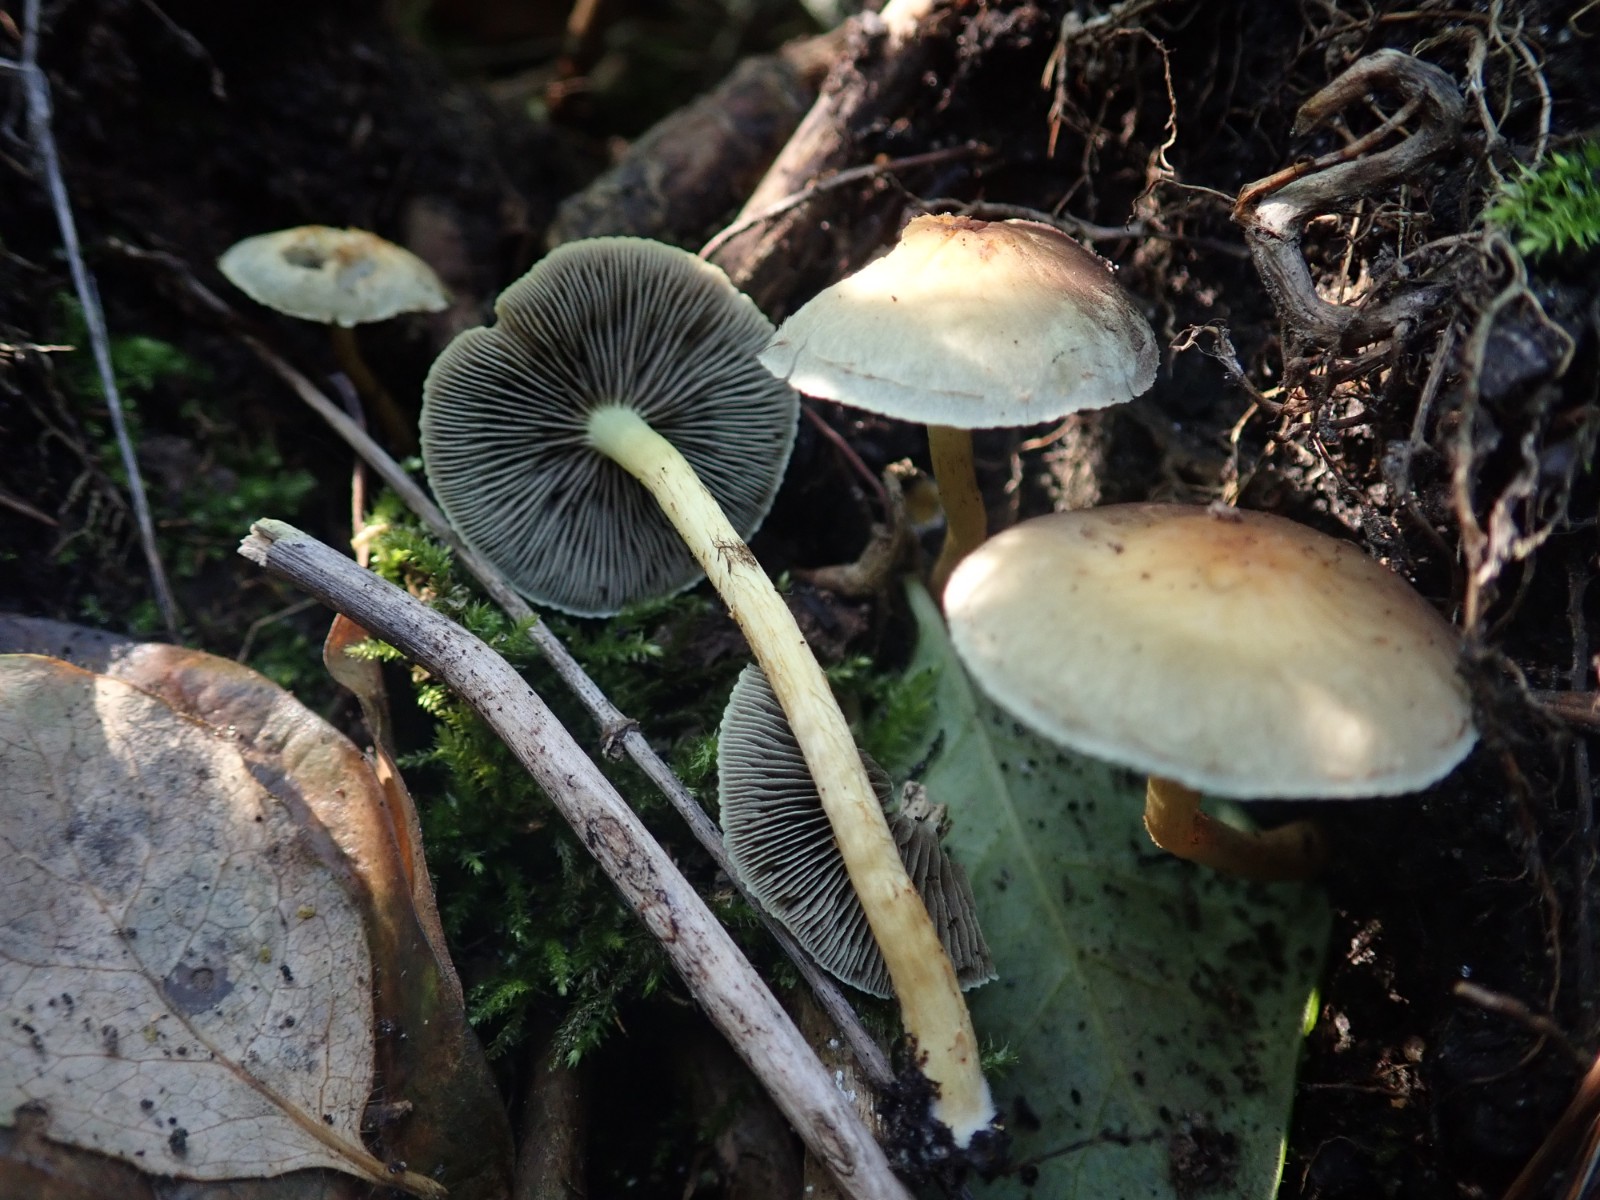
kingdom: Fungi
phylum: Basidiomycota
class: Agaricomycetes
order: Agaricales
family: Strophariaceae
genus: Hypholoma
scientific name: Hypholoma fasciculare
